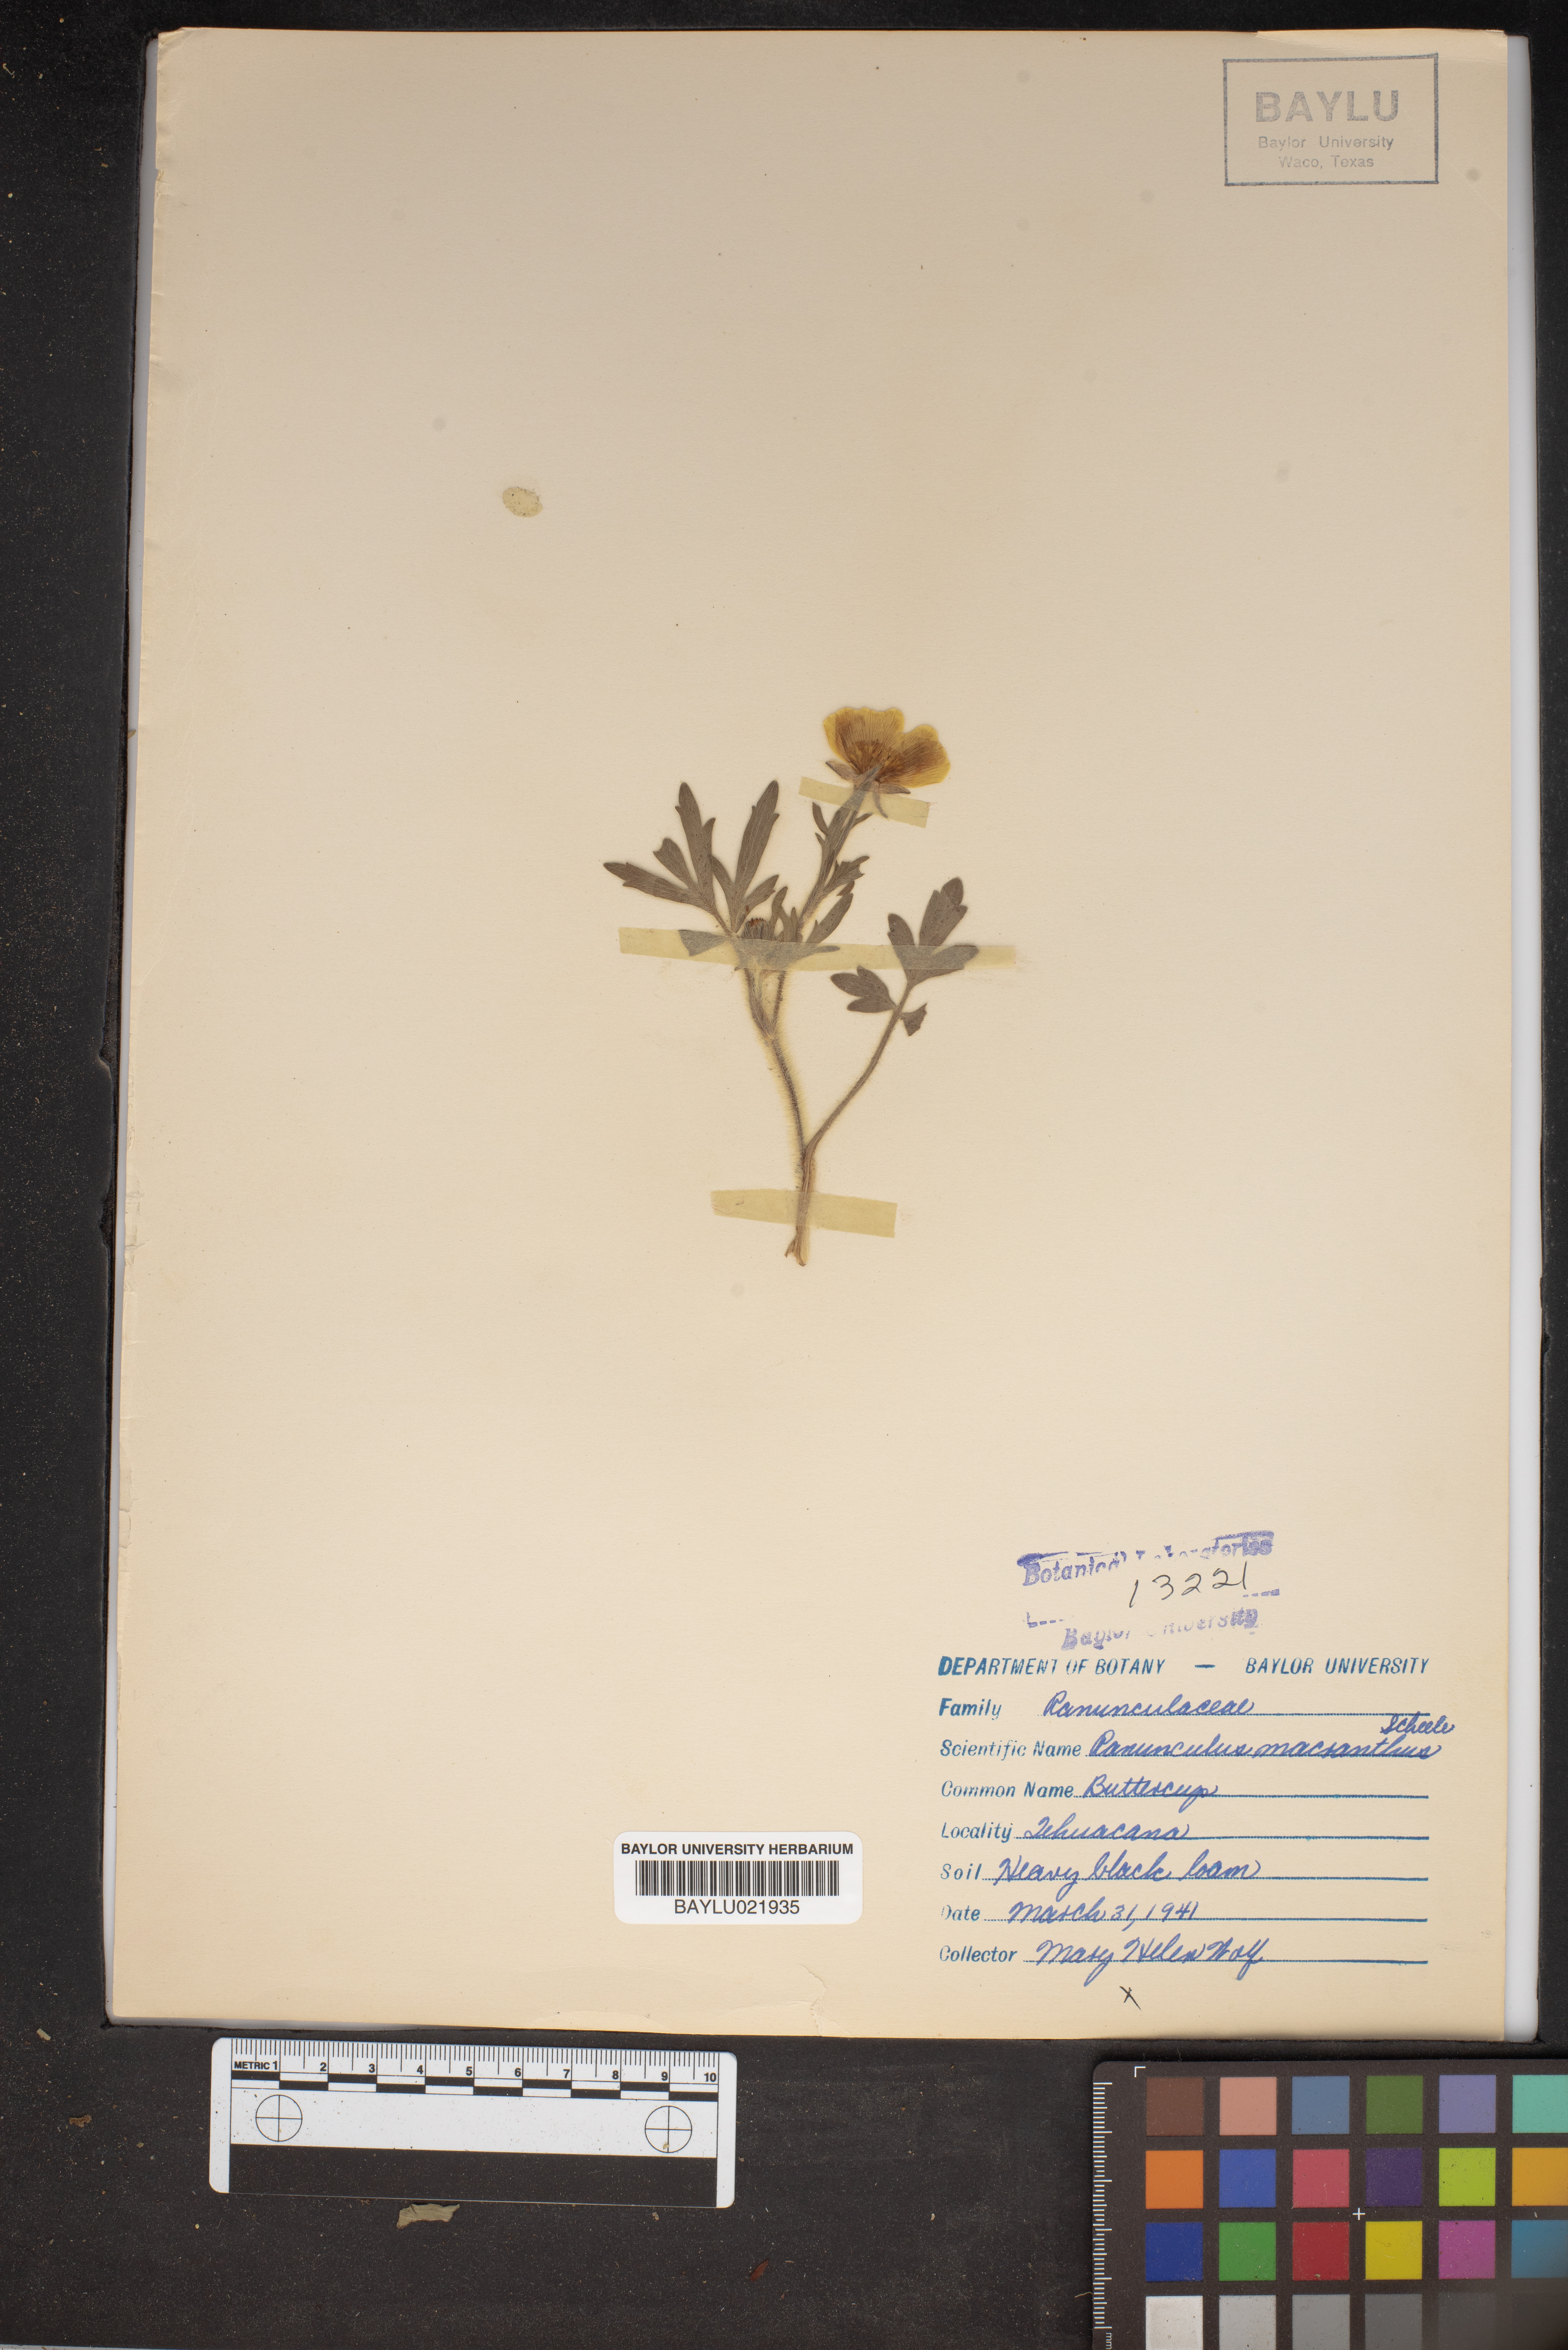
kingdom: Plantae
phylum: Tracheophyta
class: Magnoliopsida
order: Ranunculales
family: Ranunculaceae
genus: Ranunculus
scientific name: Ranunculus
